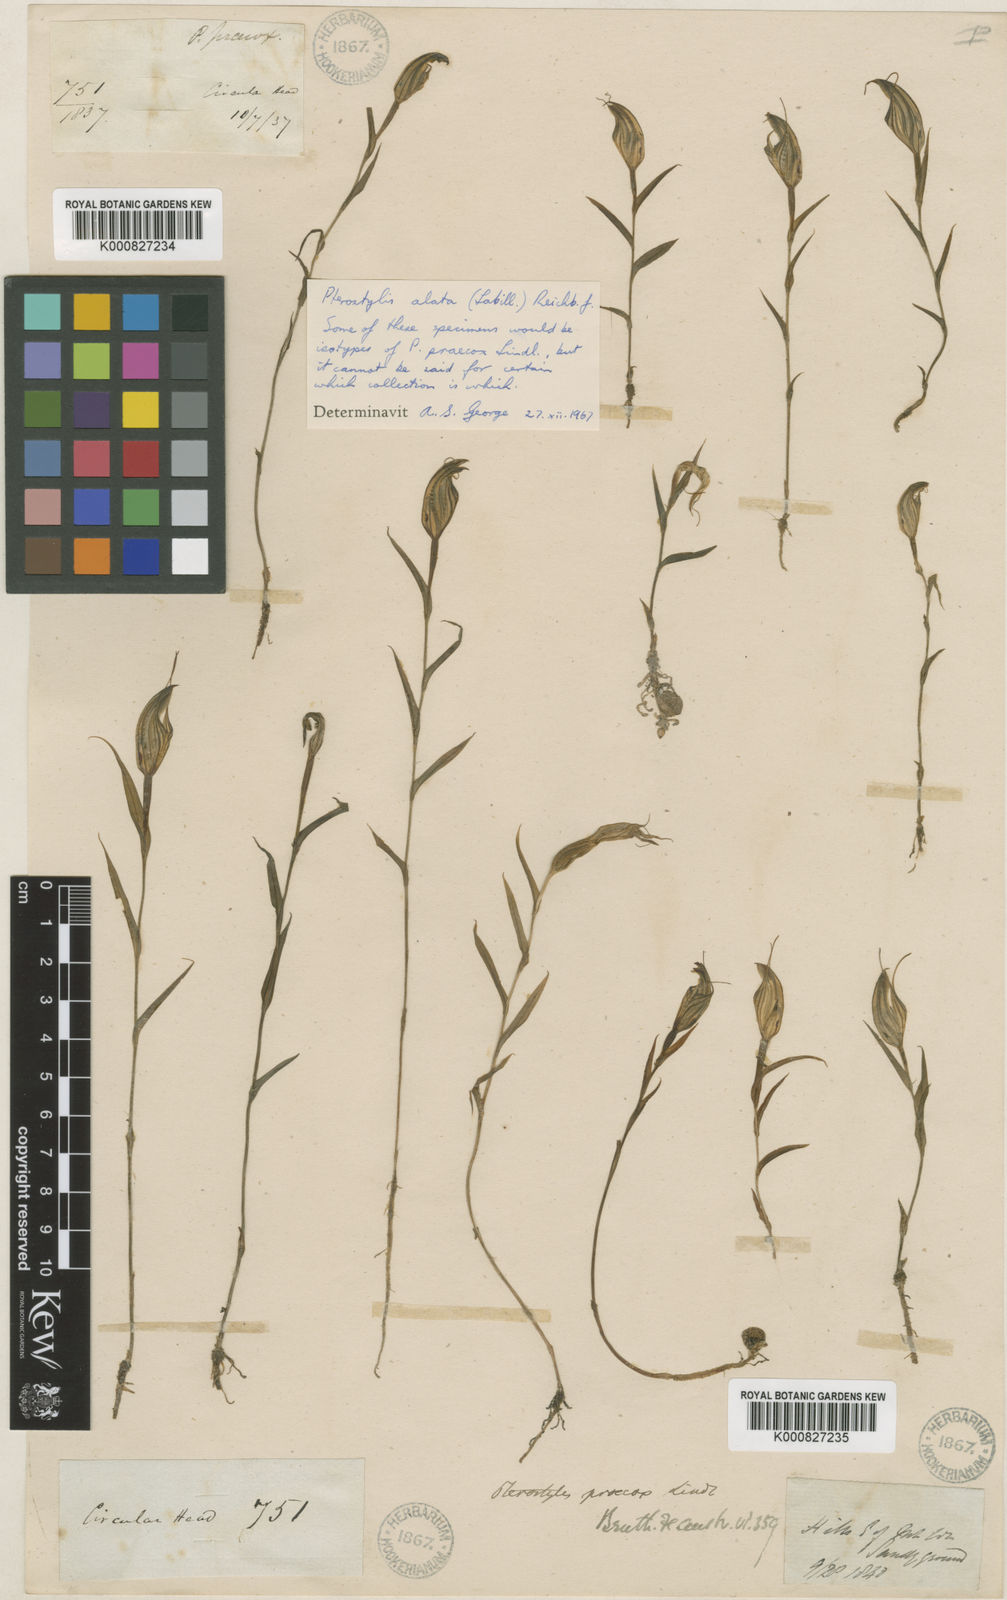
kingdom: Plantae
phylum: Tracheophyta
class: Liliopsida
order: Asparagales
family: Orchidaceae
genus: Pterostylis
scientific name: Pterostylis alata
